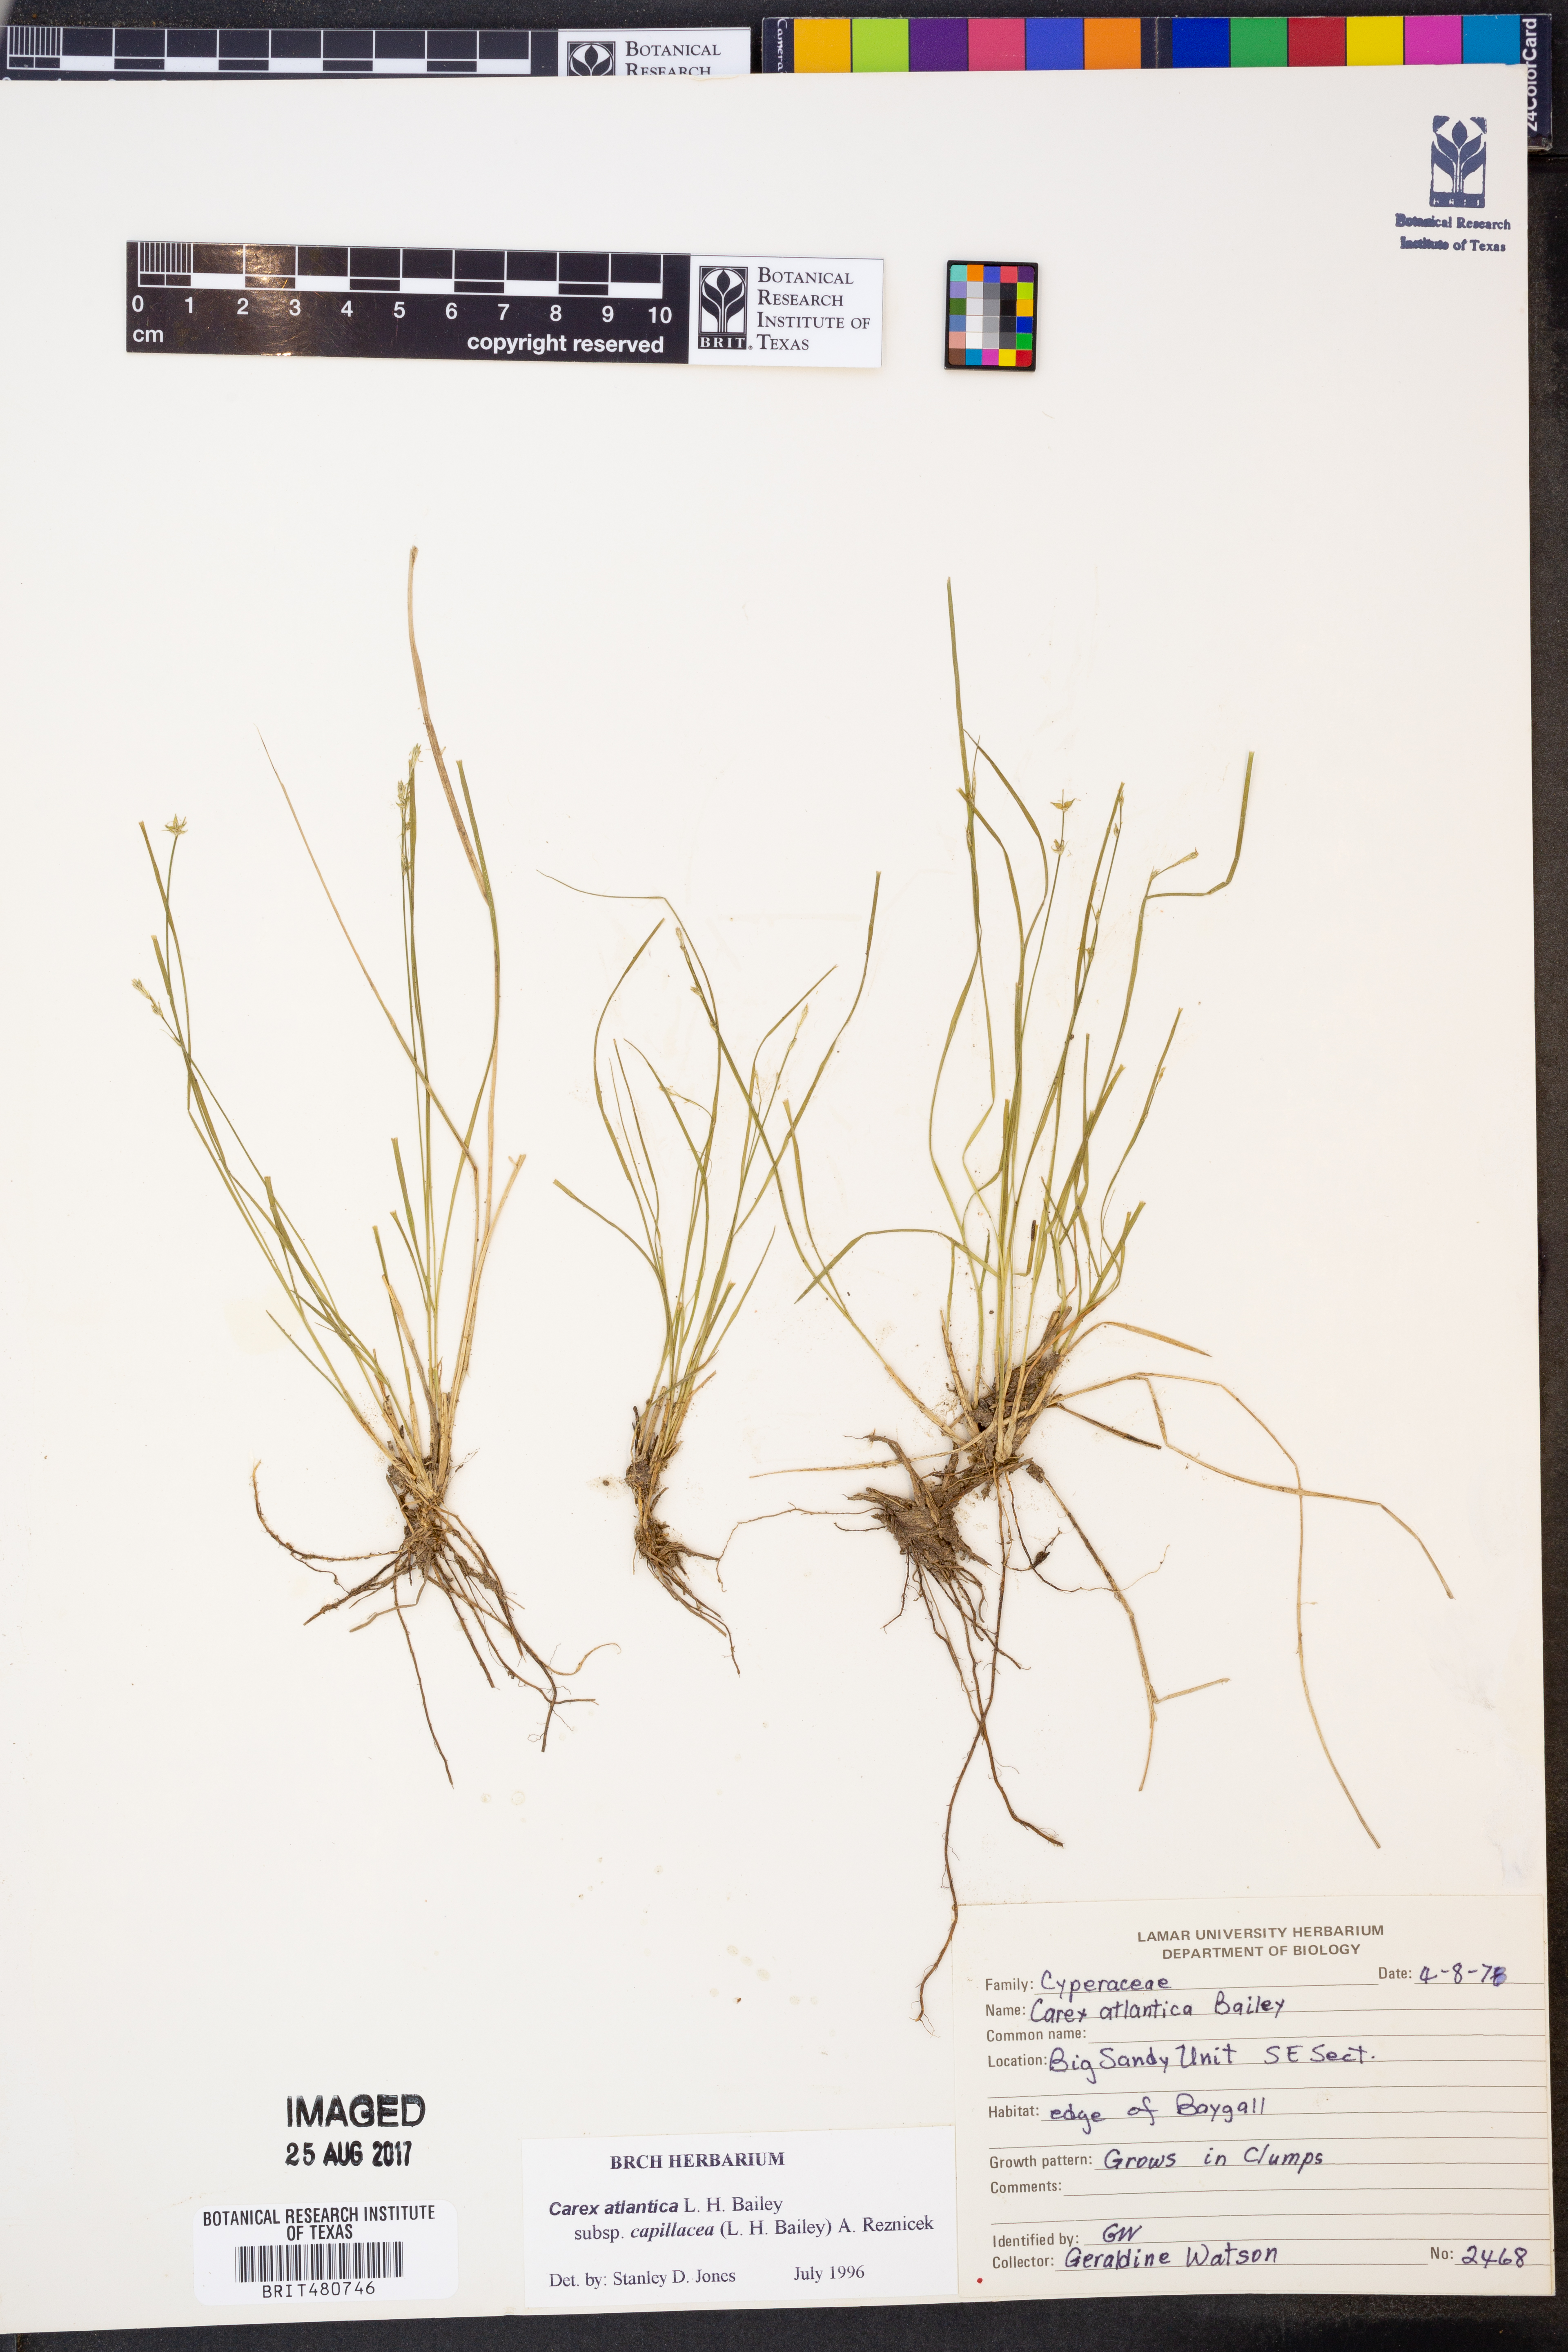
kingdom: Plantae
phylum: Tracheophyta
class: Liliopsida
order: Poales
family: Cyperaceae
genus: Carex
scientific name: Carex atlantica
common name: Atlantic sedge
